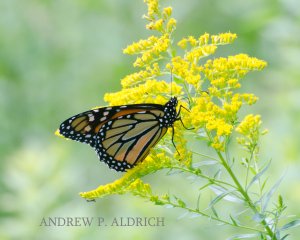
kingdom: Animalia
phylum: Arthropoda
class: Insecta
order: Lepidoptera
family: Nymphalidae
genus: Danaus
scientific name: Danaus plexippus
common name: Monarch
